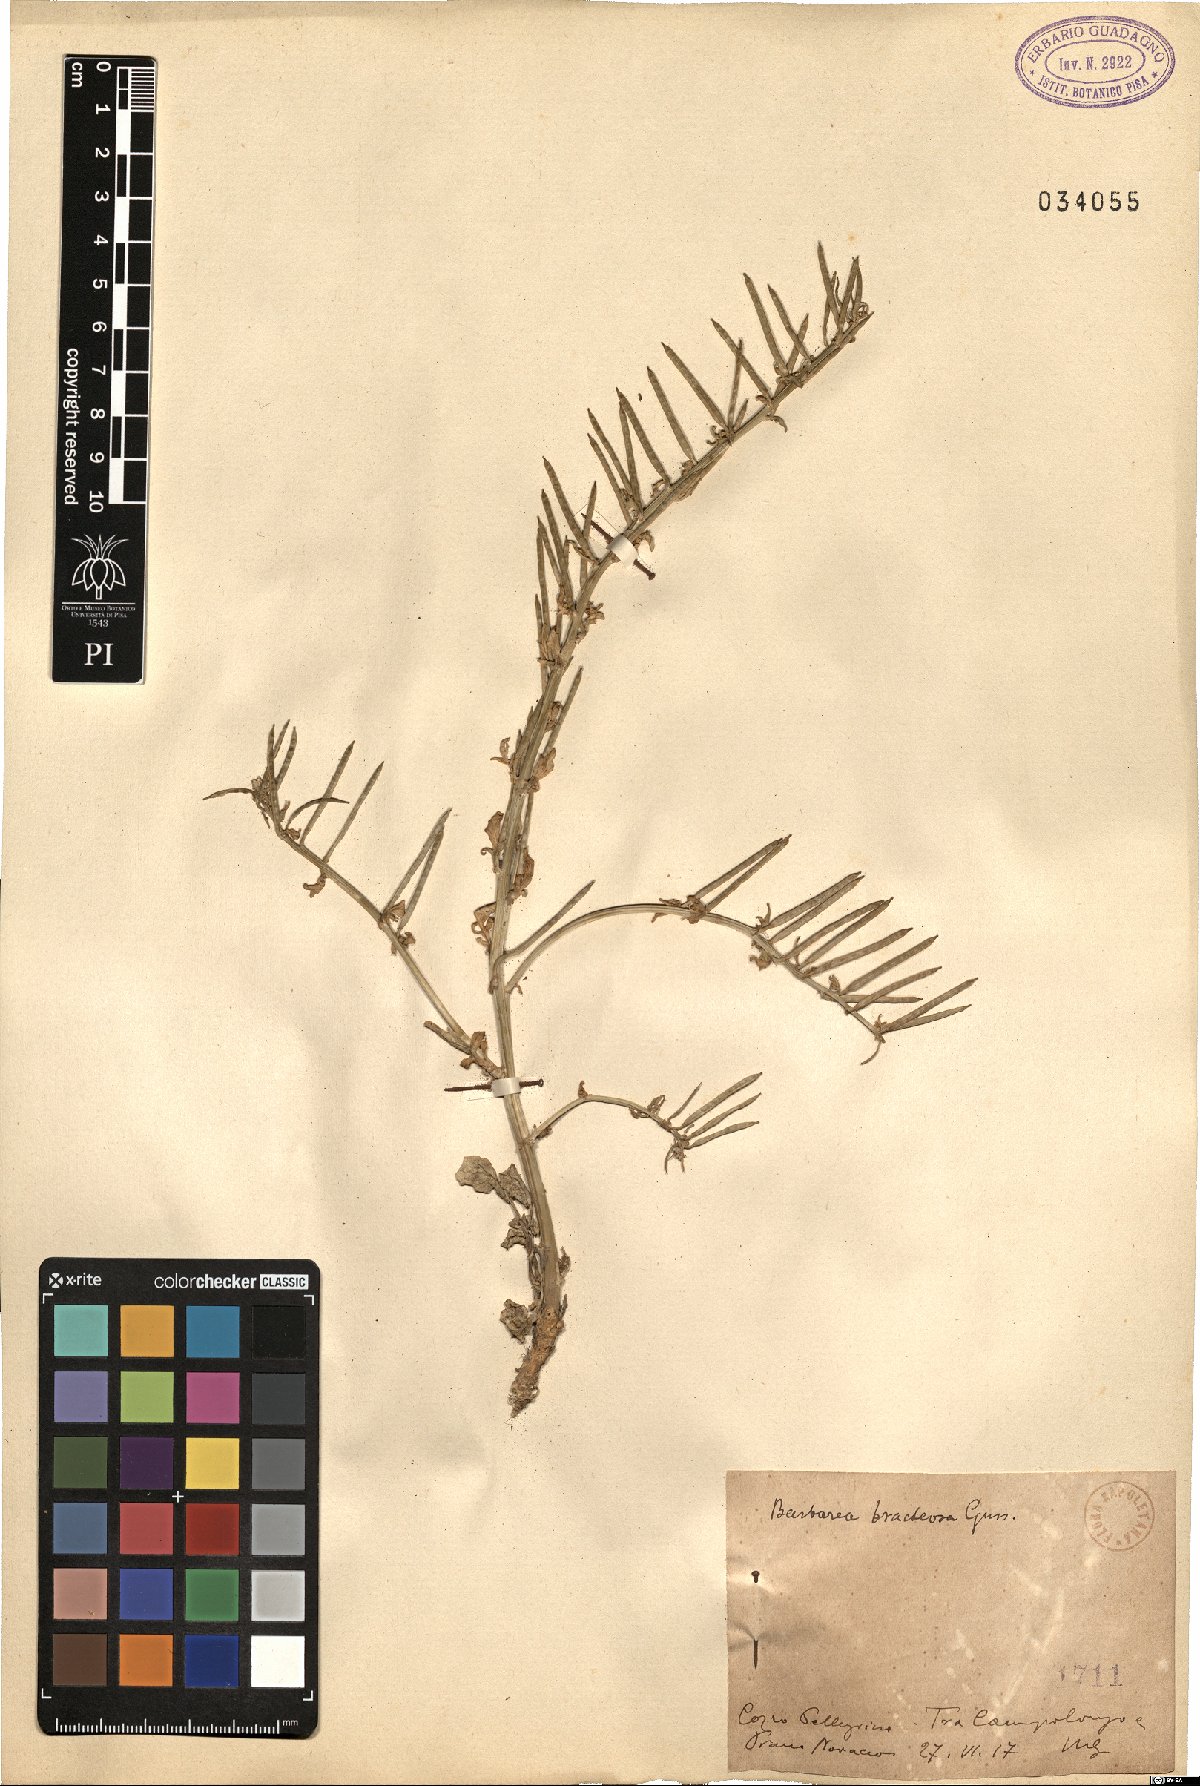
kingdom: Plantae
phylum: Tracheophyta
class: Magnoliopsida
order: Brassicales
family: Brassicaceae
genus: Barbarea
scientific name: Barbarea bracteosa
